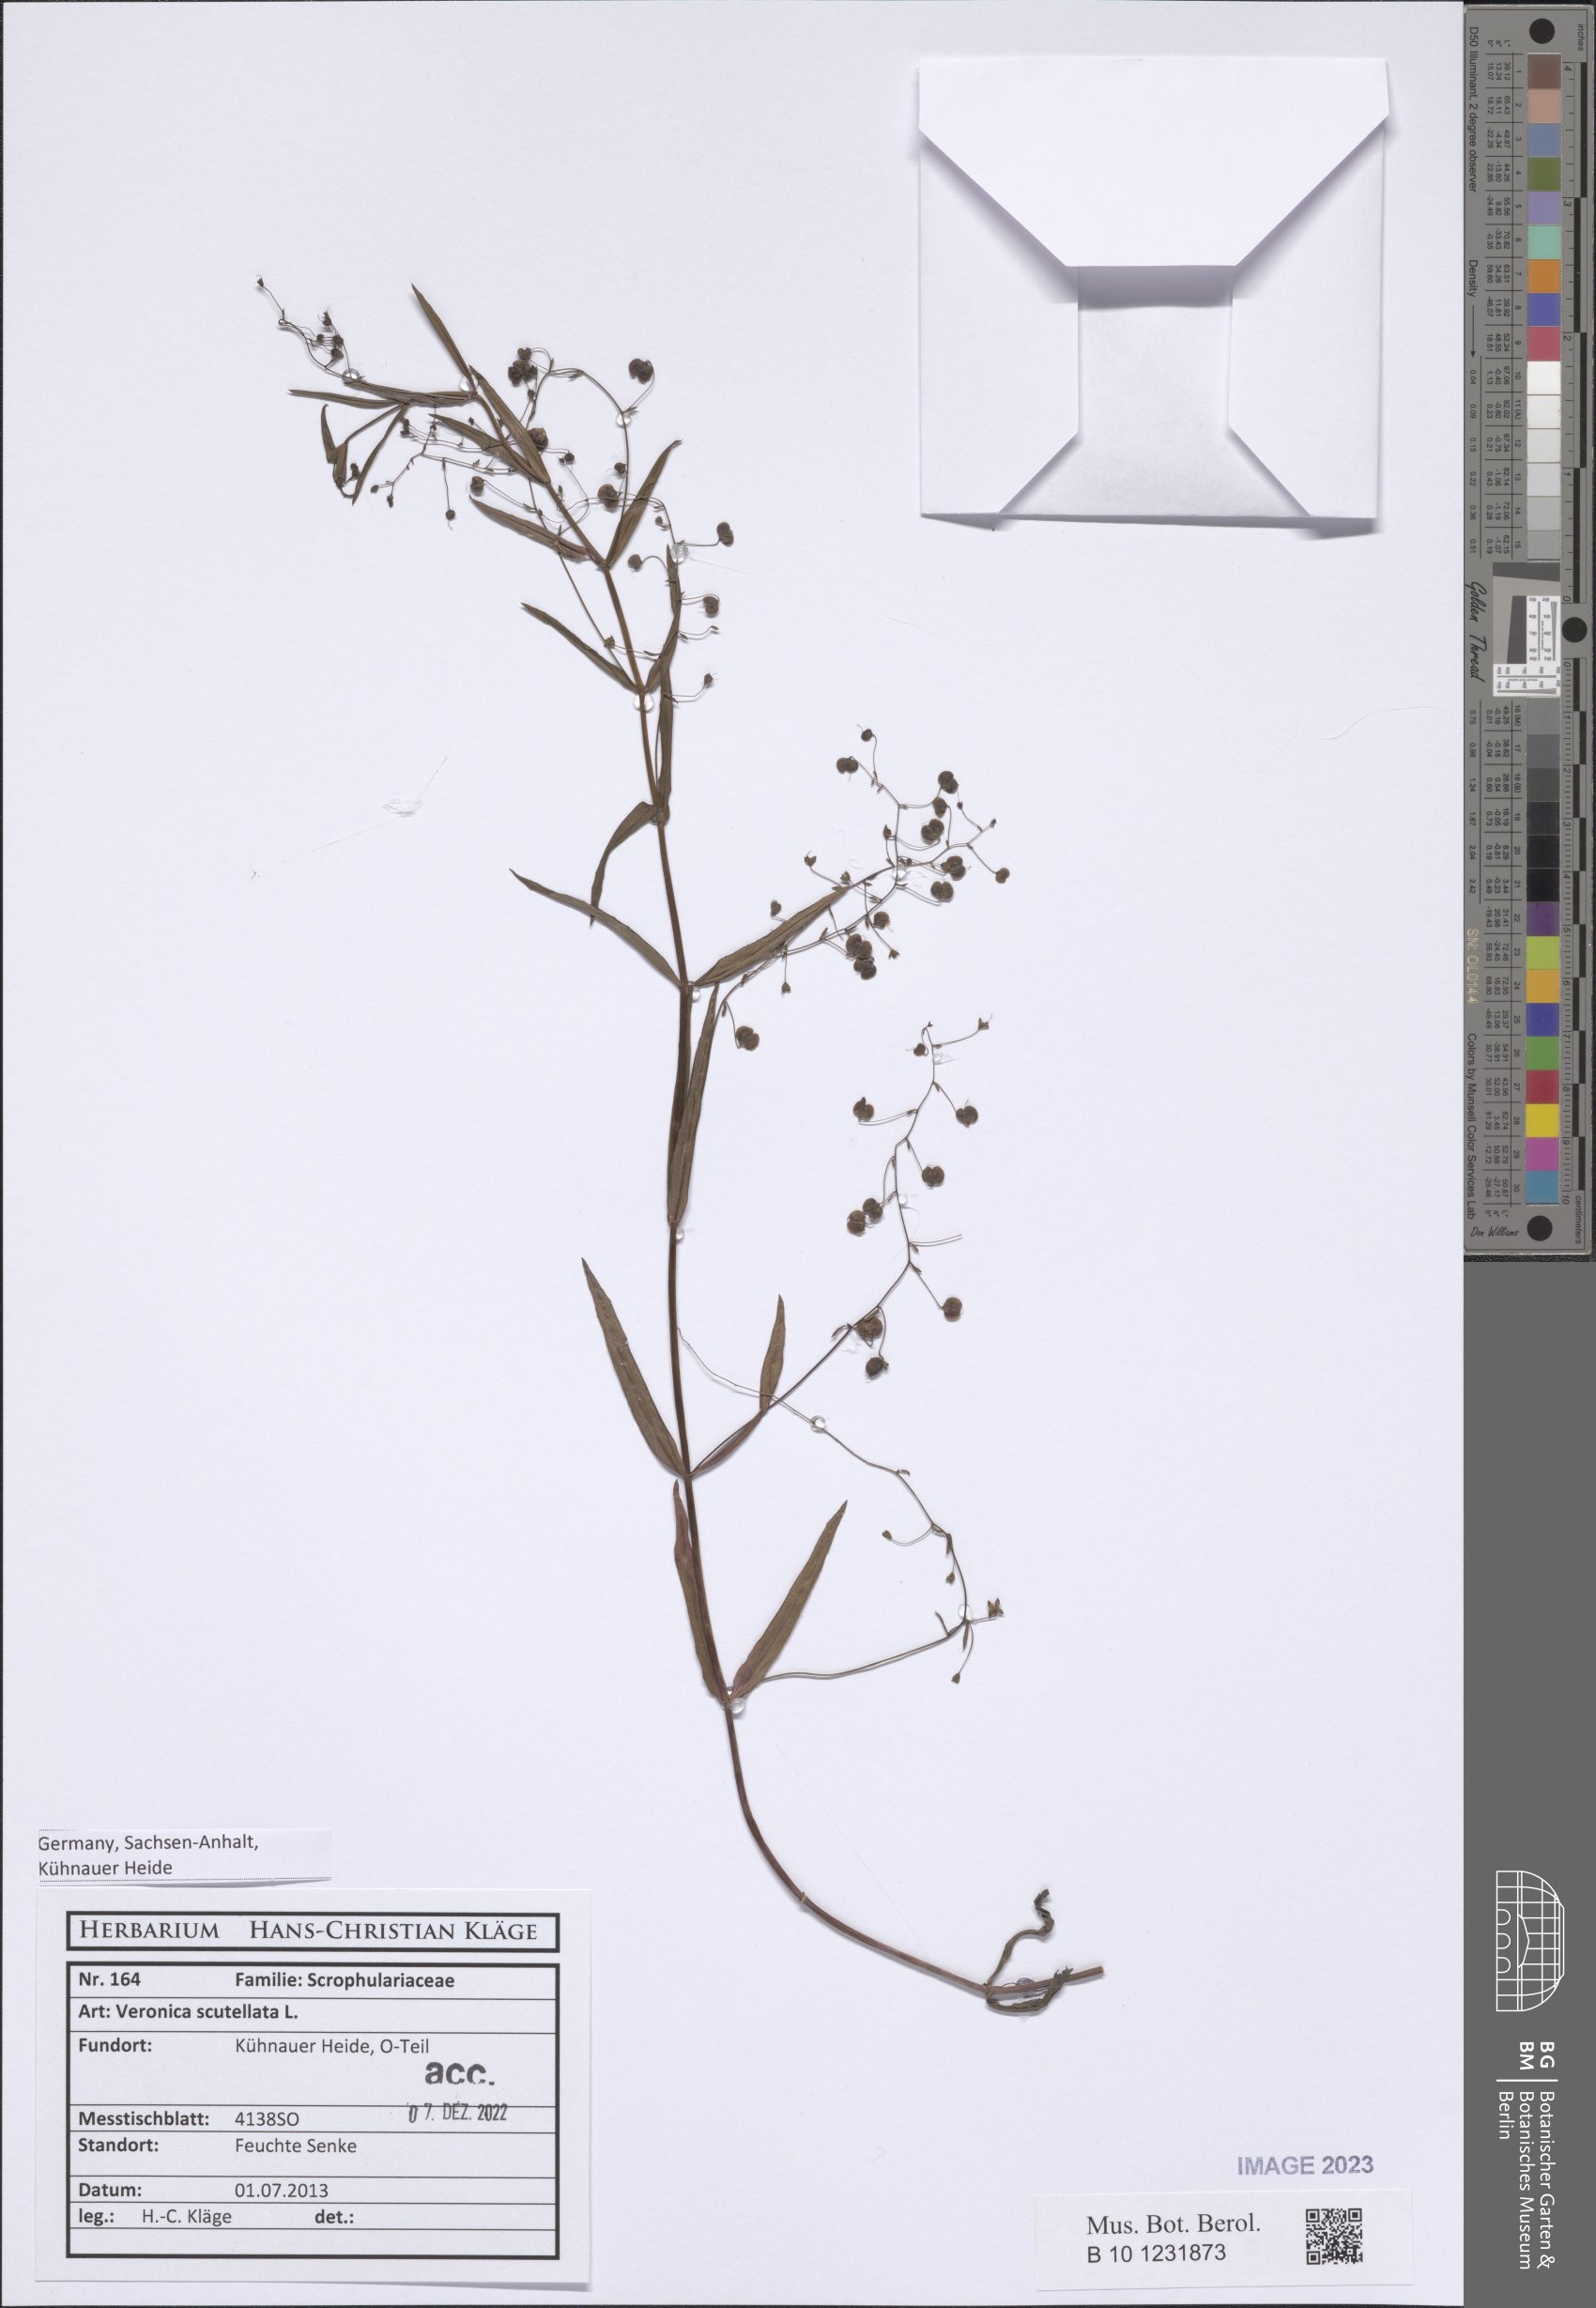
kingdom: Plantae
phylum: Tracheophyta
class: Magnoliopsida
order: Lamiales
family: Plantaginaceae
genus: Veronica
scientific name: Veronica scutellata
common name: Marsh speedwell
